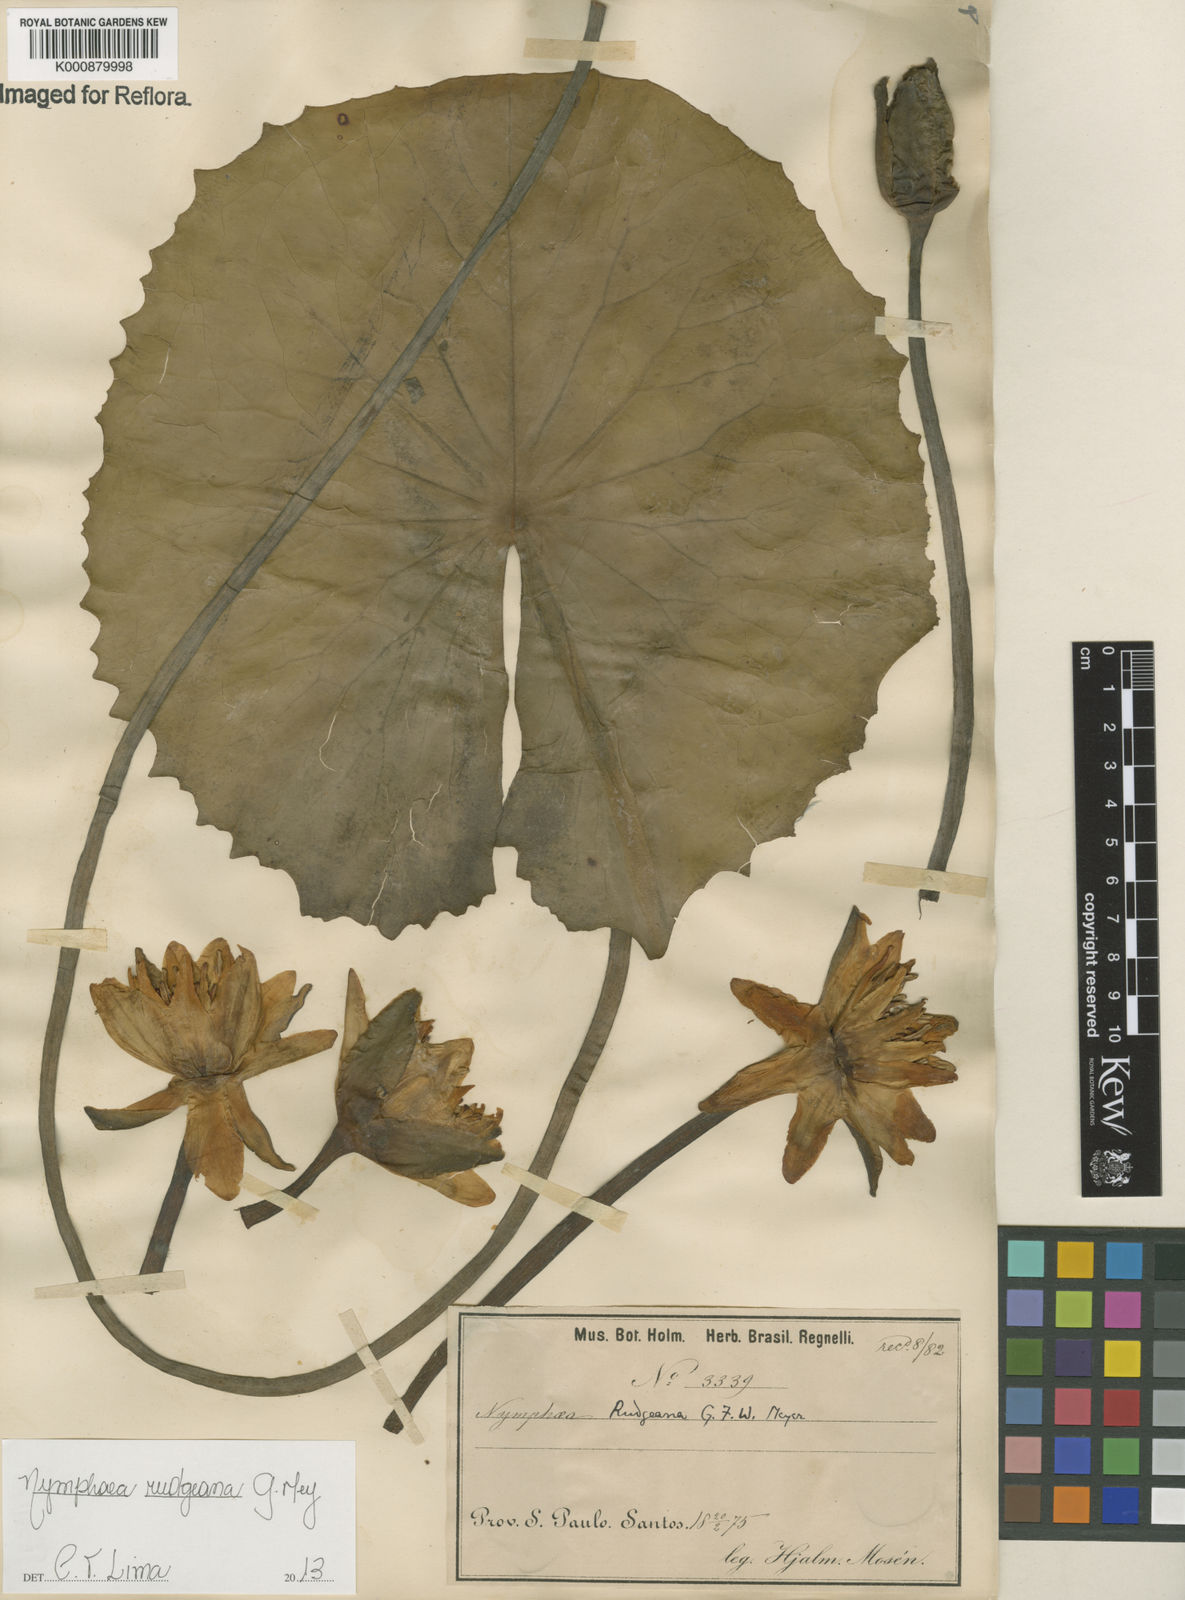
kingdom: Plantae
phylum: Tracheophyta
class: Magnoliopsida
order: Nymphaeales
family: Nymphaeaceae
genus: Nymphaea
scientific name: Nymphaea rudgeana
